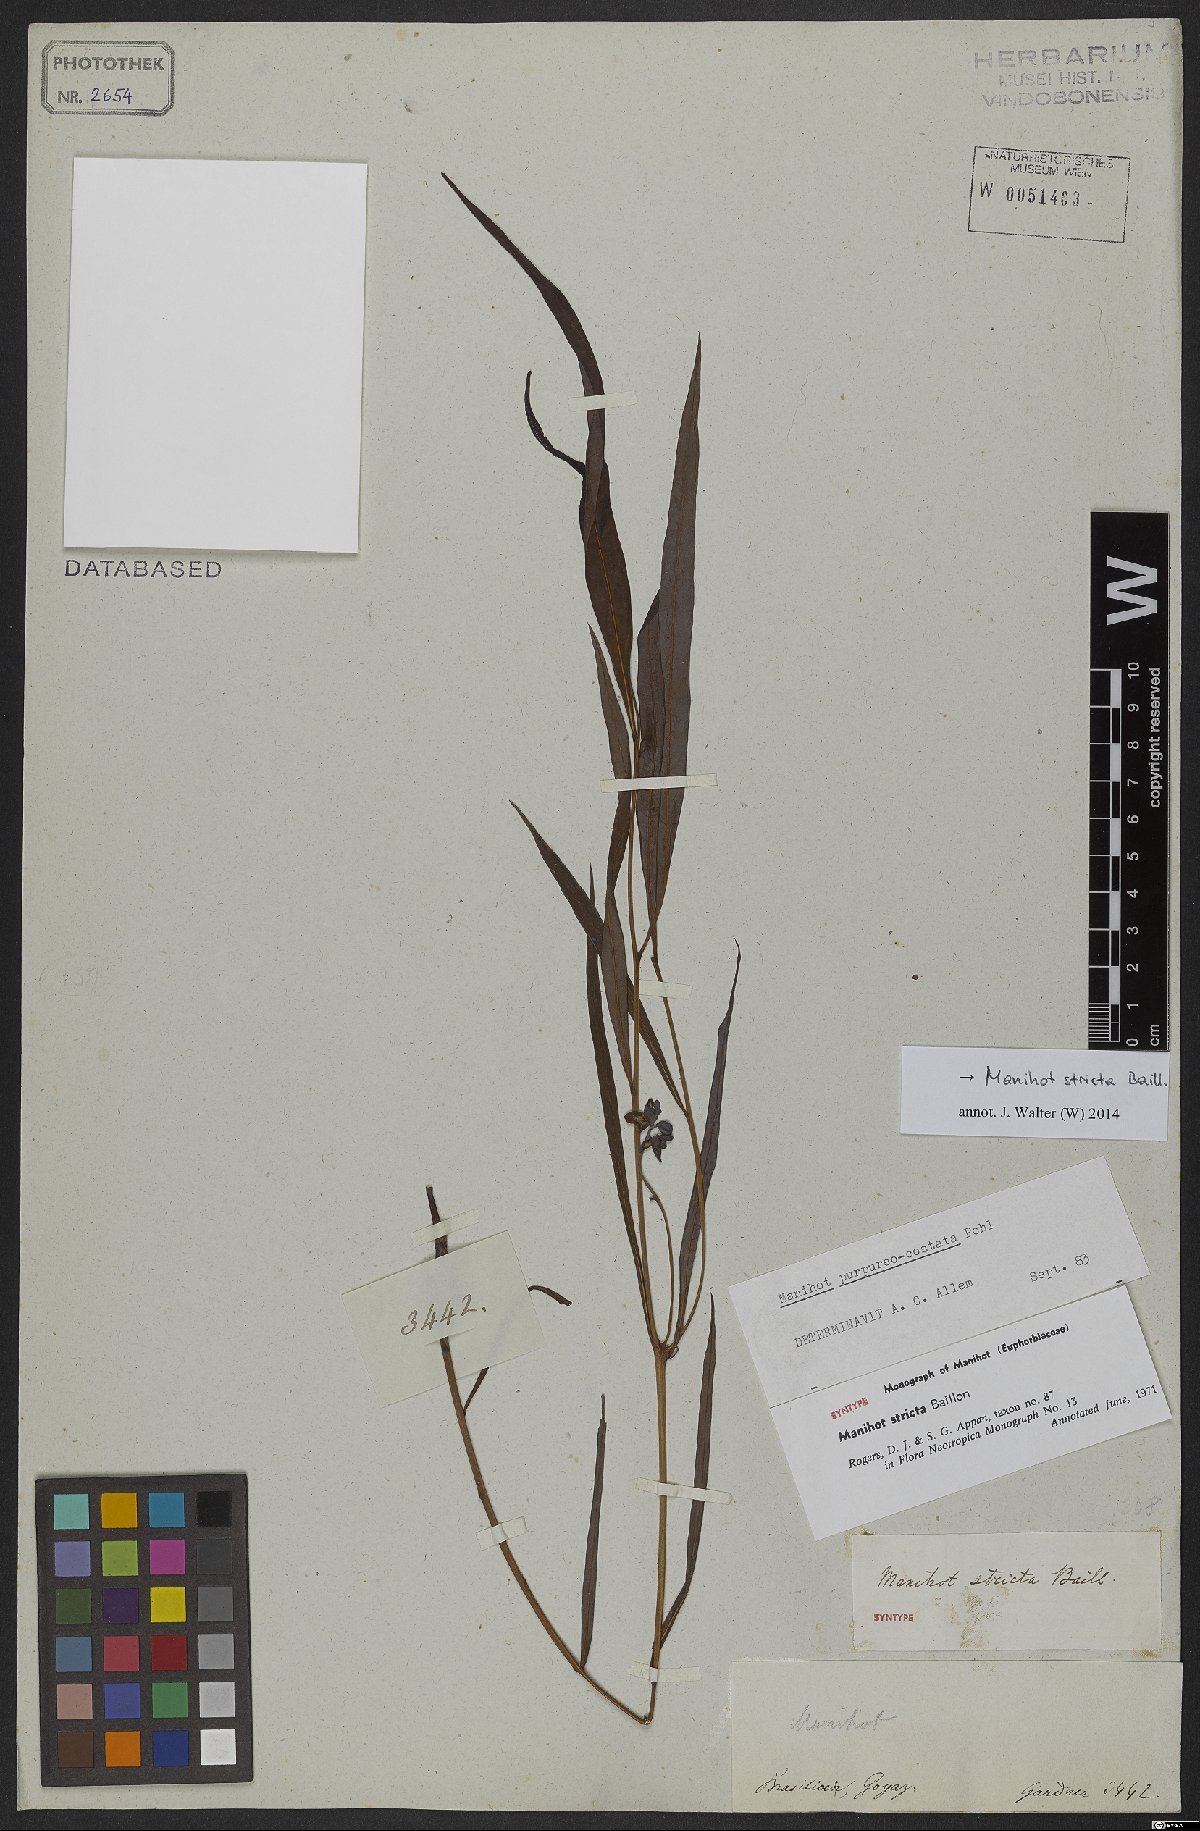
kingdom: Plantae
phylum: Tracheophyta
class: Magnoliopsida
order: Malpighiales
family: Euphorbiaceae
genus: Manihot
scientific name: Manihot stricta
